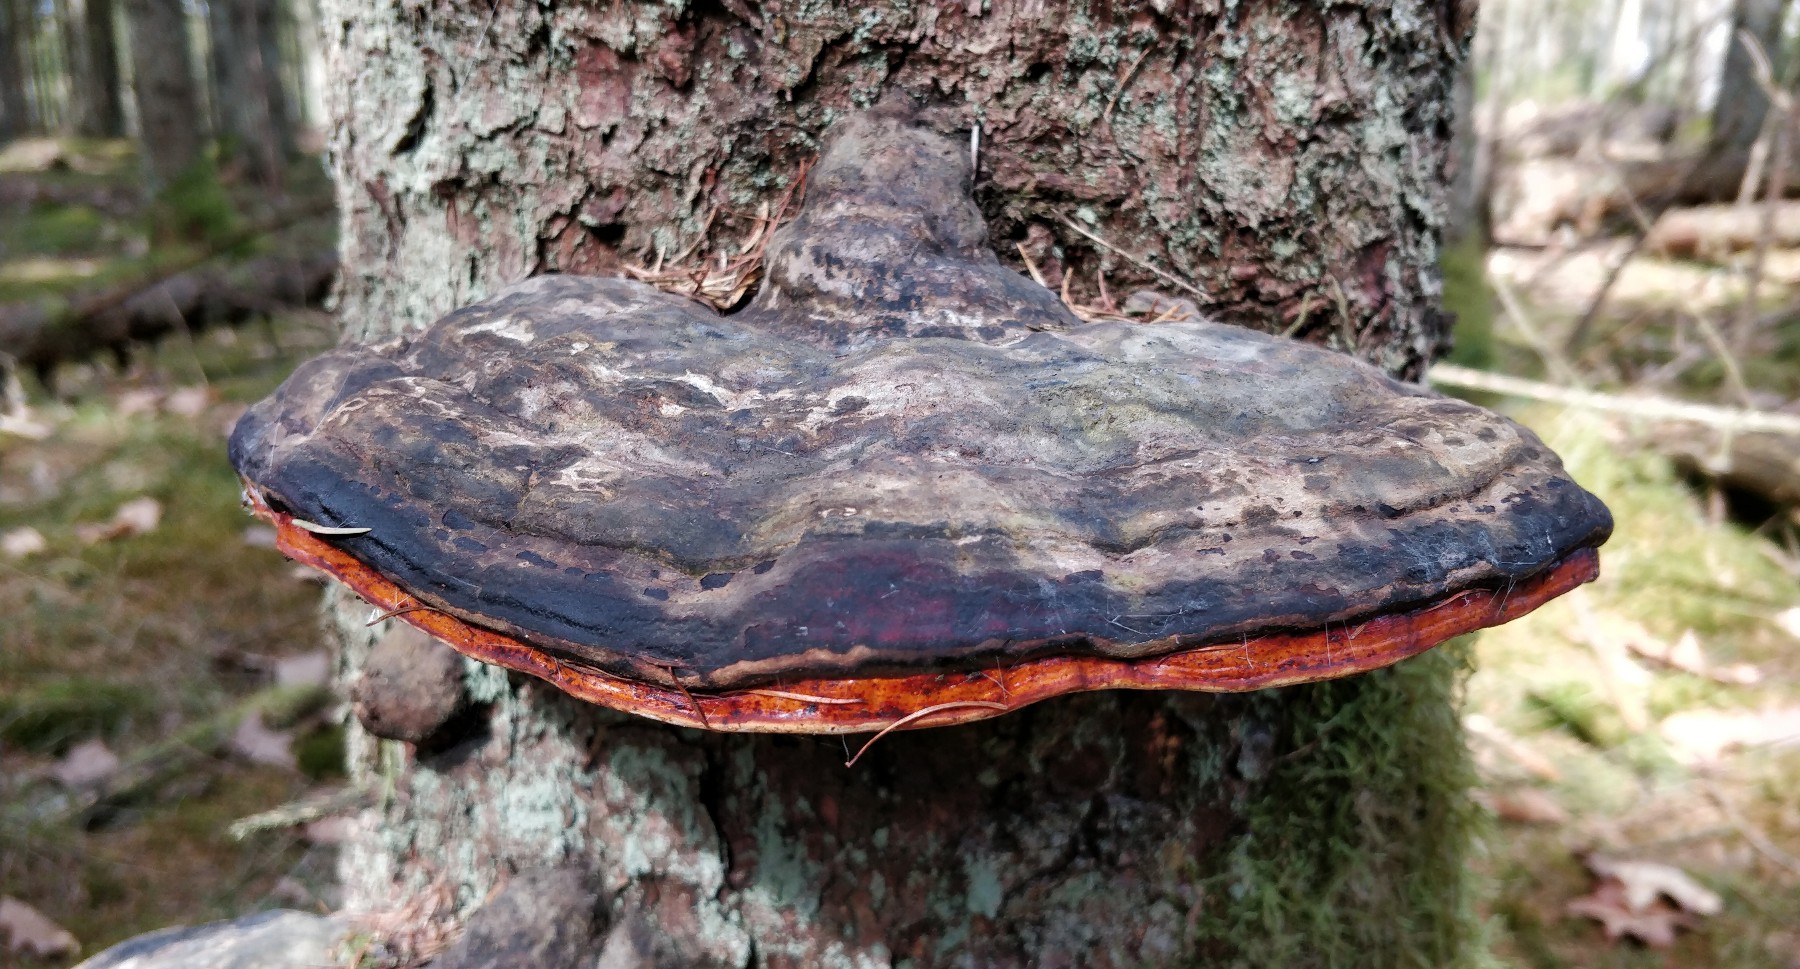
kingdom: Fungi
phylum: Basidiomycota
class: Agaricomycetes
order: Polyporales
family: Fomitopsidaceae
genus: Fomitopsis
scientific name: Fomitopsis pinicola
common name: randbæltet hovporesvamp
